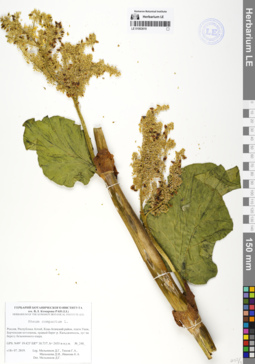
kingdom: Plantae
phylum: Tracheophyta
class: Magnoliopsida
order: Caryophyllales
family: Polygonaceae
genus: Rheum
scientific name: Rheum compactum
